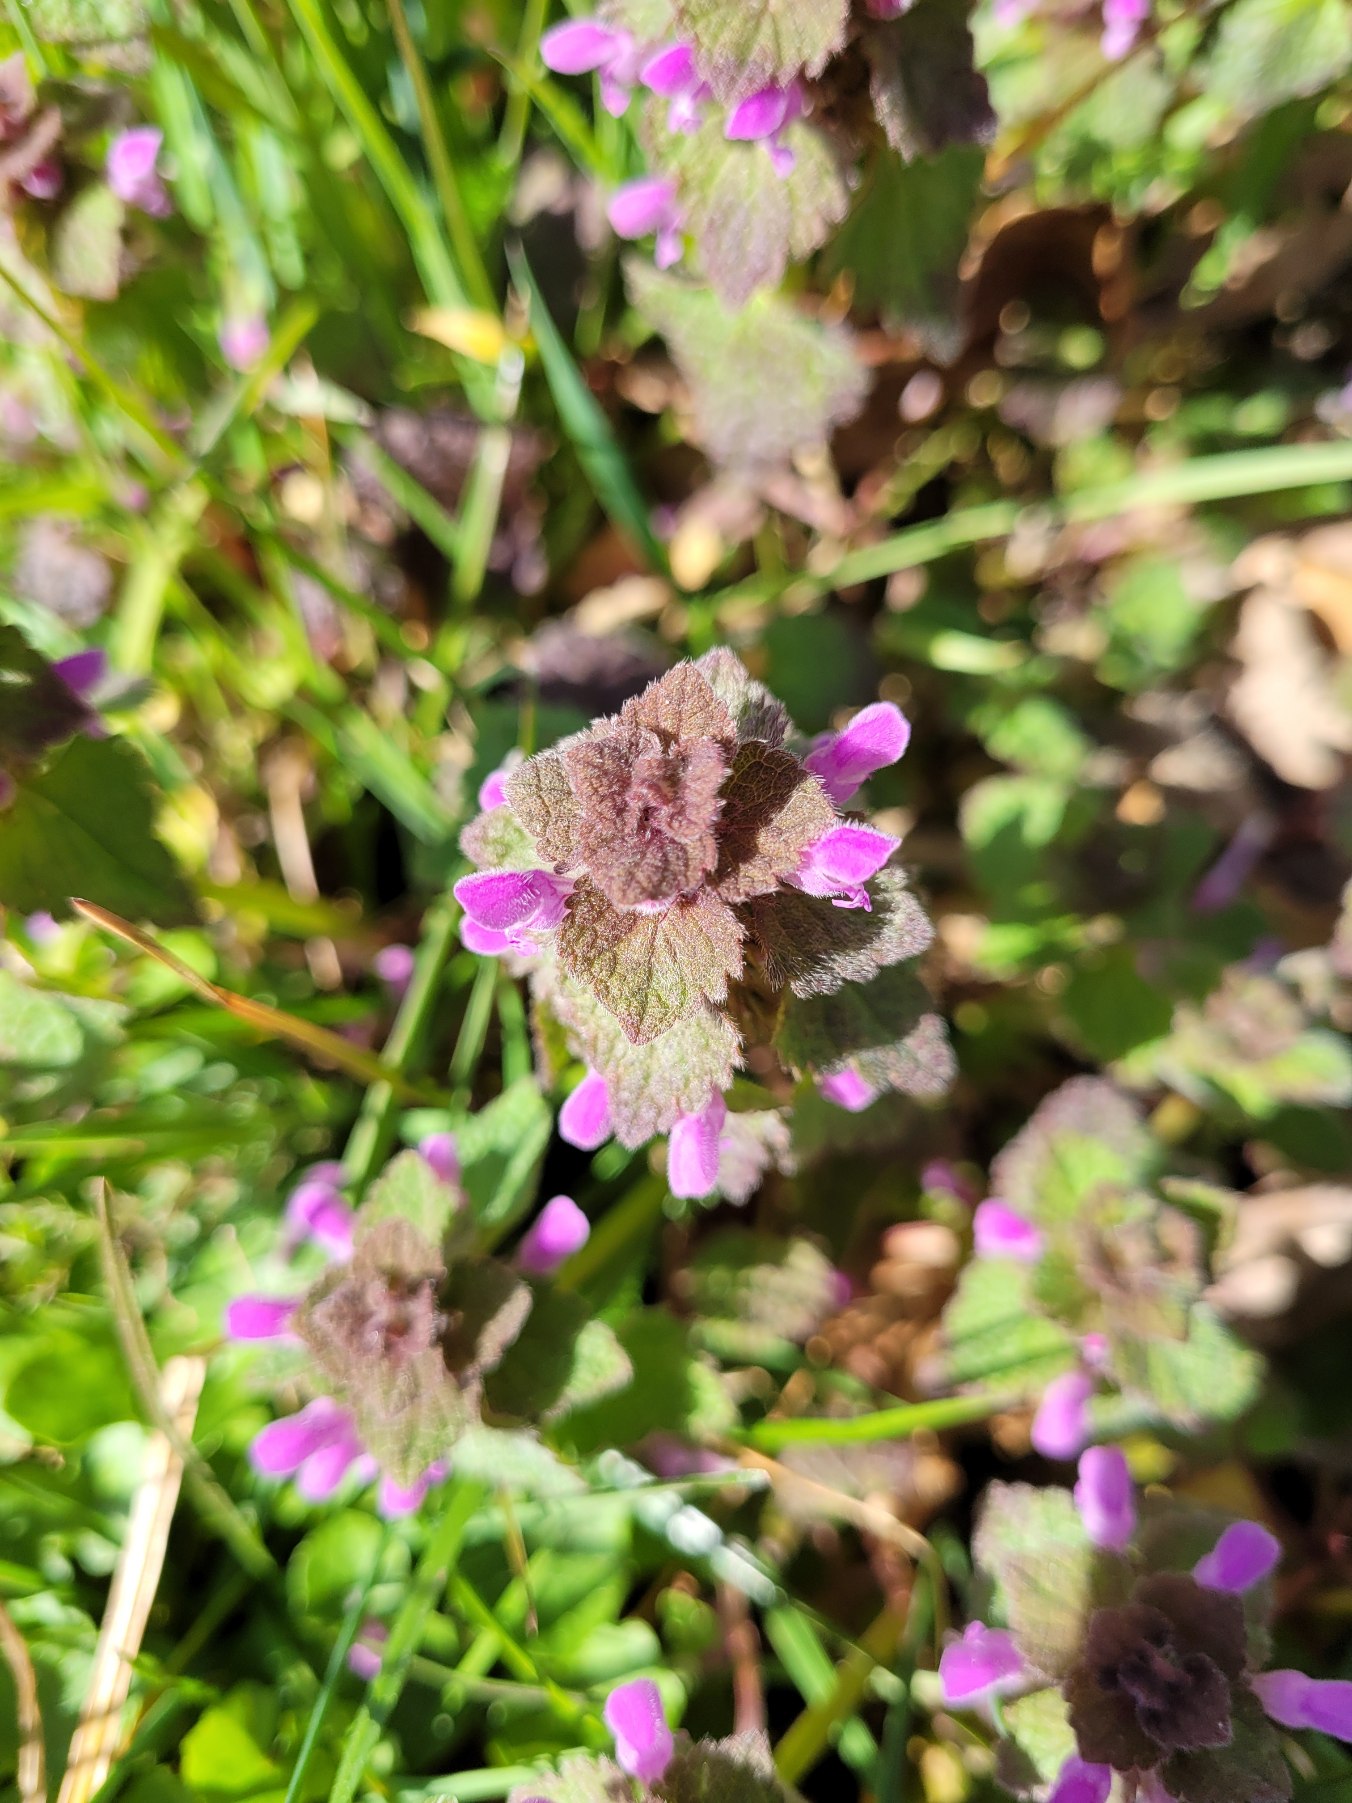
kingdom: Plantae
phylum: Tracheophyta
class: Magnoliopsida
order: Lamiales
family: Lamiaceae
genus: Lamium
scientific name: Lamium purpureum
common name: Rød tvetand
